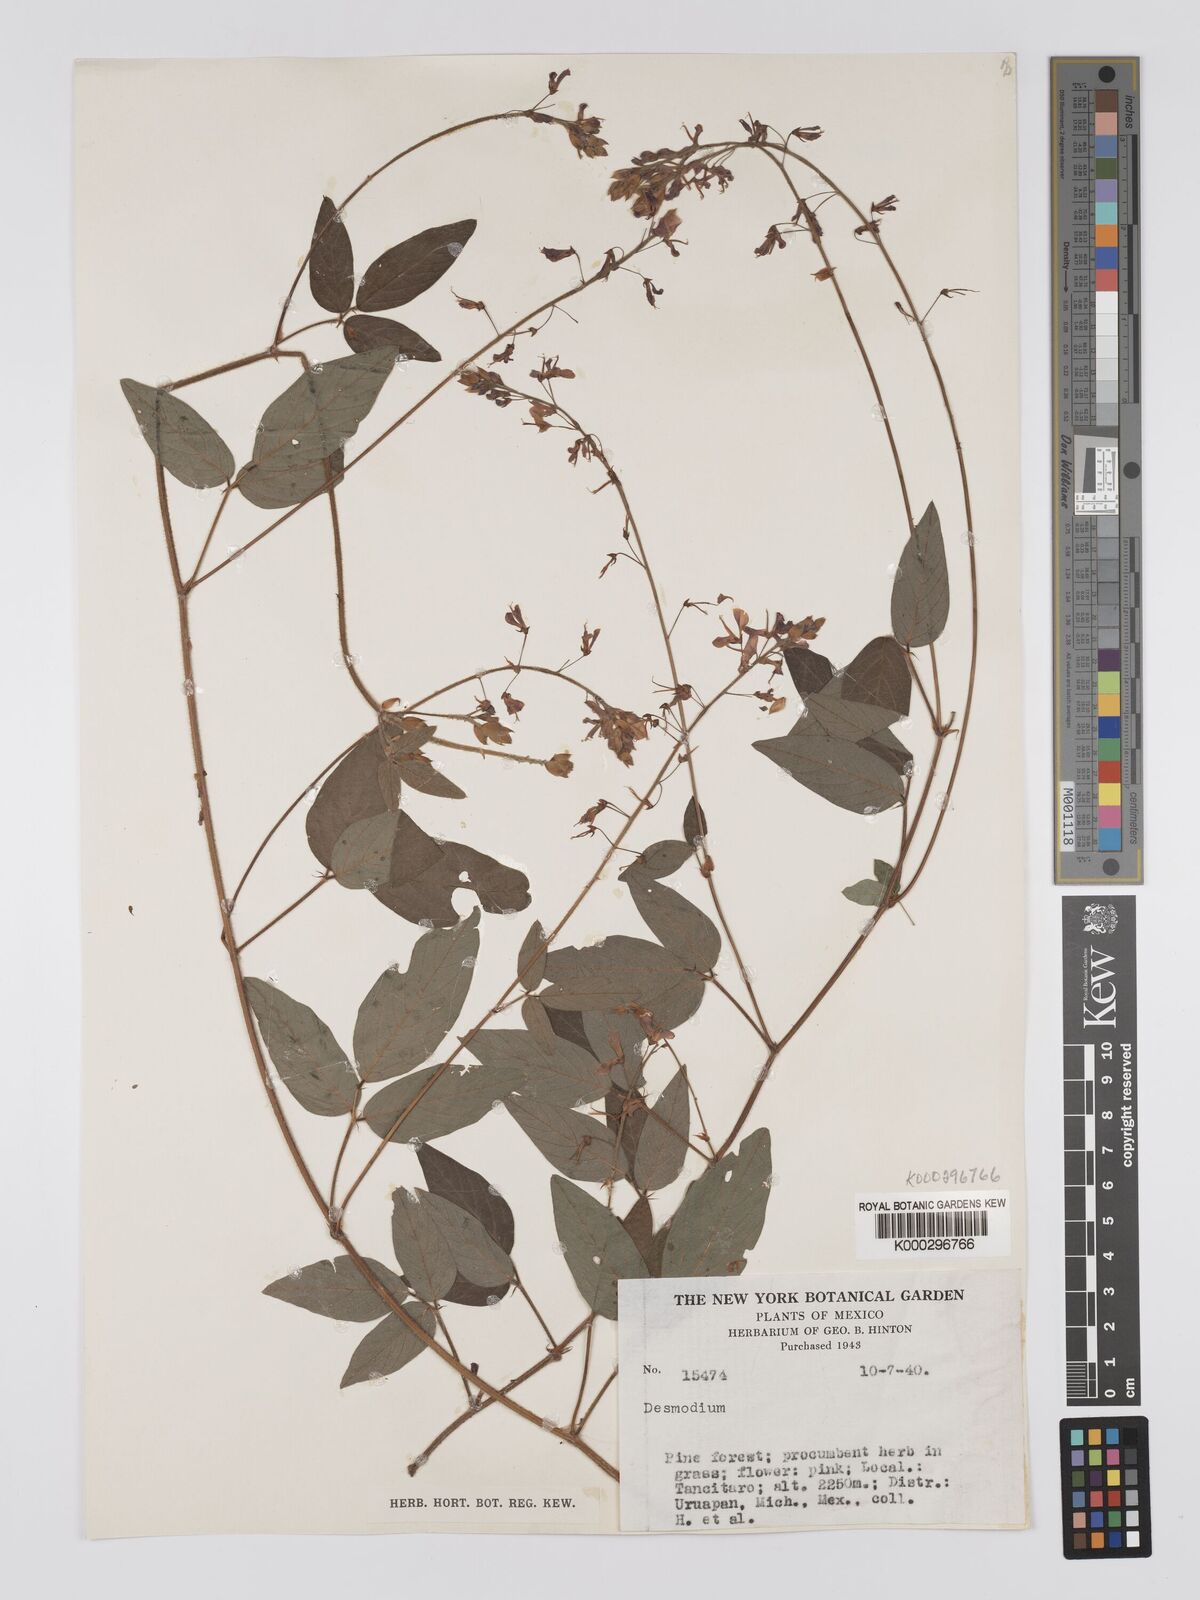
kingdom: Plantae
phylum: Tracheophyta
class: Magnoliopsida
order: Fabales
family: Fabaceae
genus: Desmodium
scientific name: Desmodium
